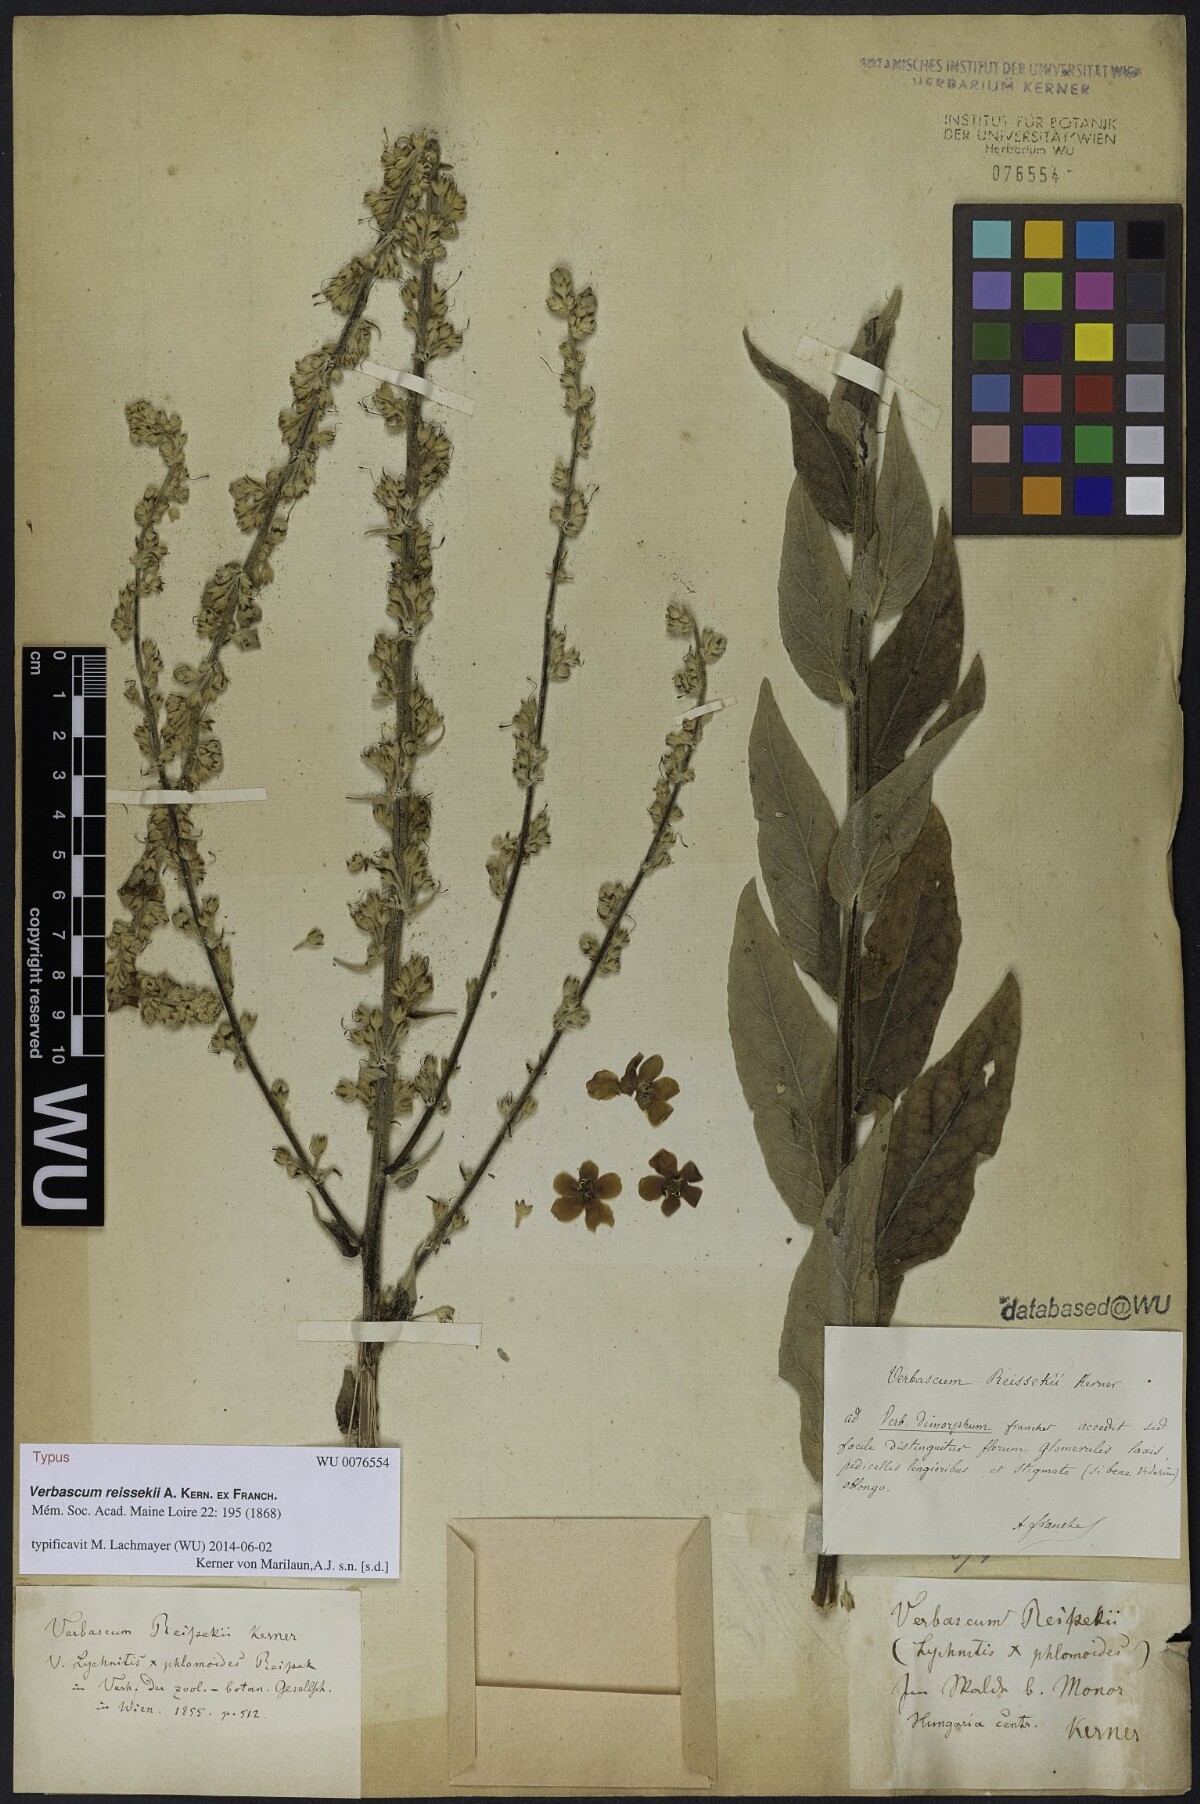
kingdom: Plantae
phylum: Tracheophyta
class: Magnoliopsida
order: Lamiales
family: Scrophulariaceae
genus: Verbascum
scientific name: Verbascum denudatum
